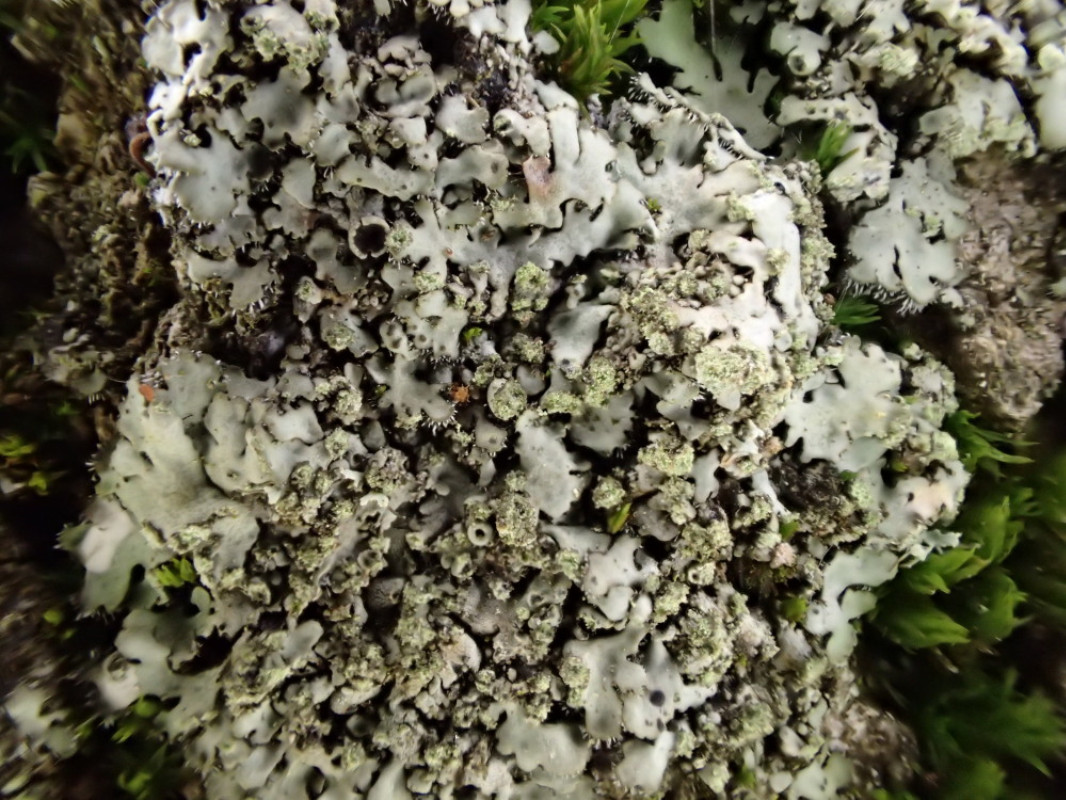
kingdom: Fungi
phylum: Ascomycota
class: Lecanoromycetes
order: Caliciales
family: Physciaceae
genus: Phaeophyscia
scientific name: Phaeophyscia orbicularis
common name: grågrøn rosetlav
